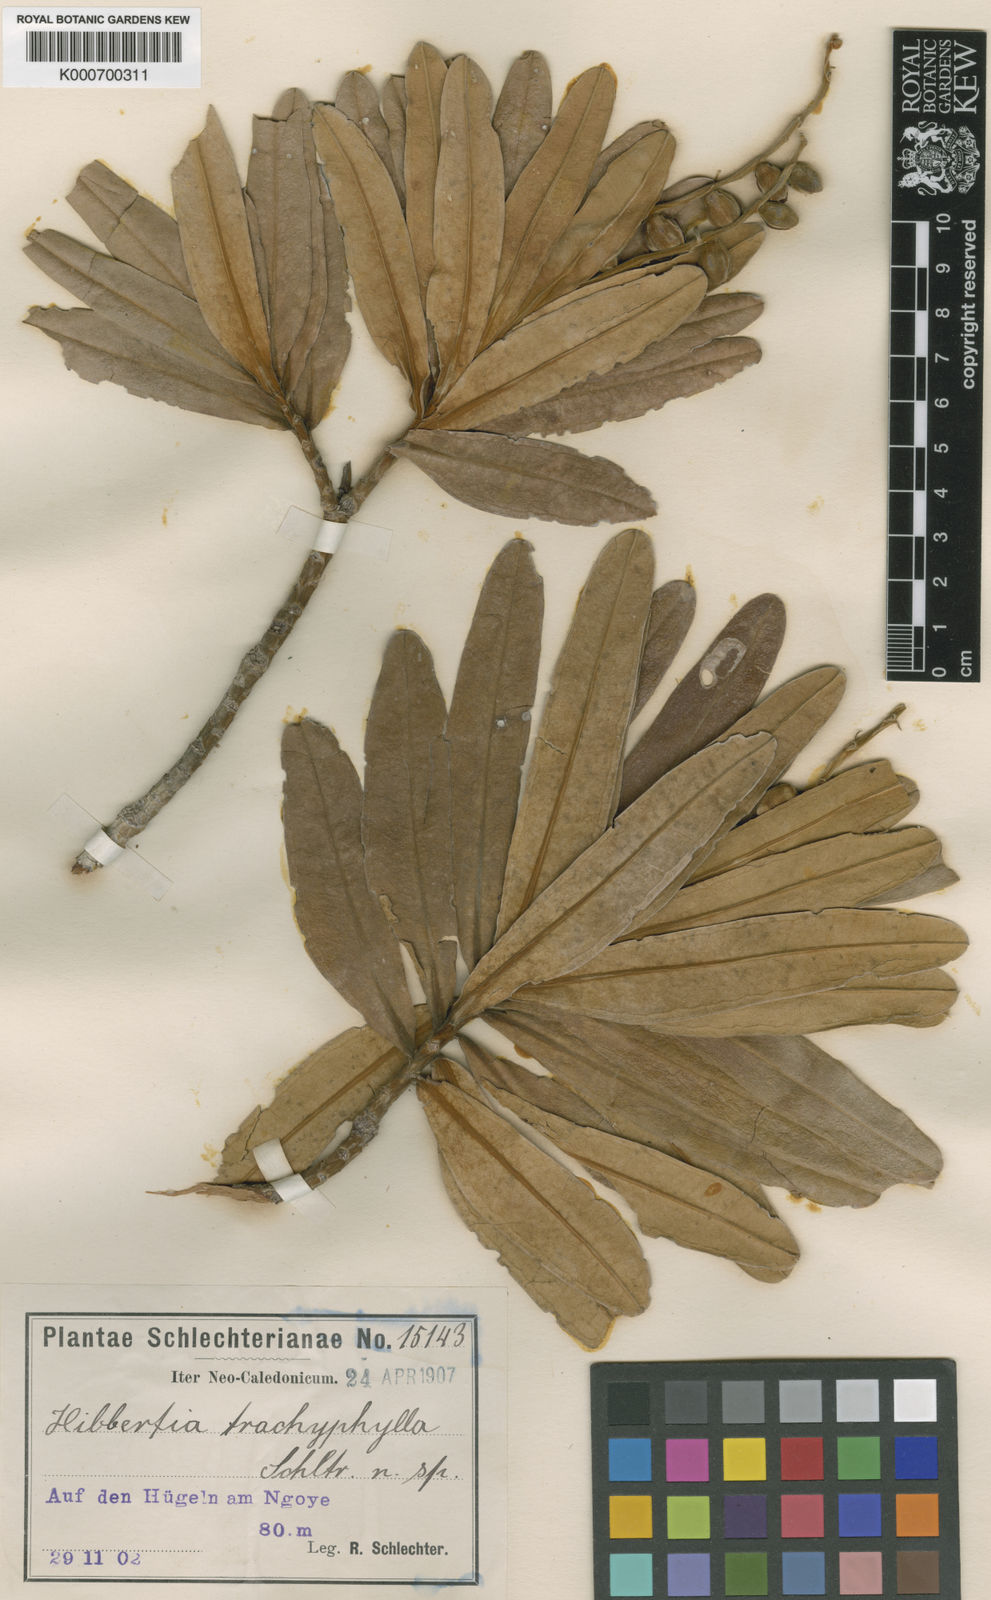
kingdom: Plantae
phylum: Tracheophyta
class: Magnoliopsida
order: Dilleniales
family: Dilleniaceae
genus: Hibbertia
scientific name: Hibbertia trachyphylla
